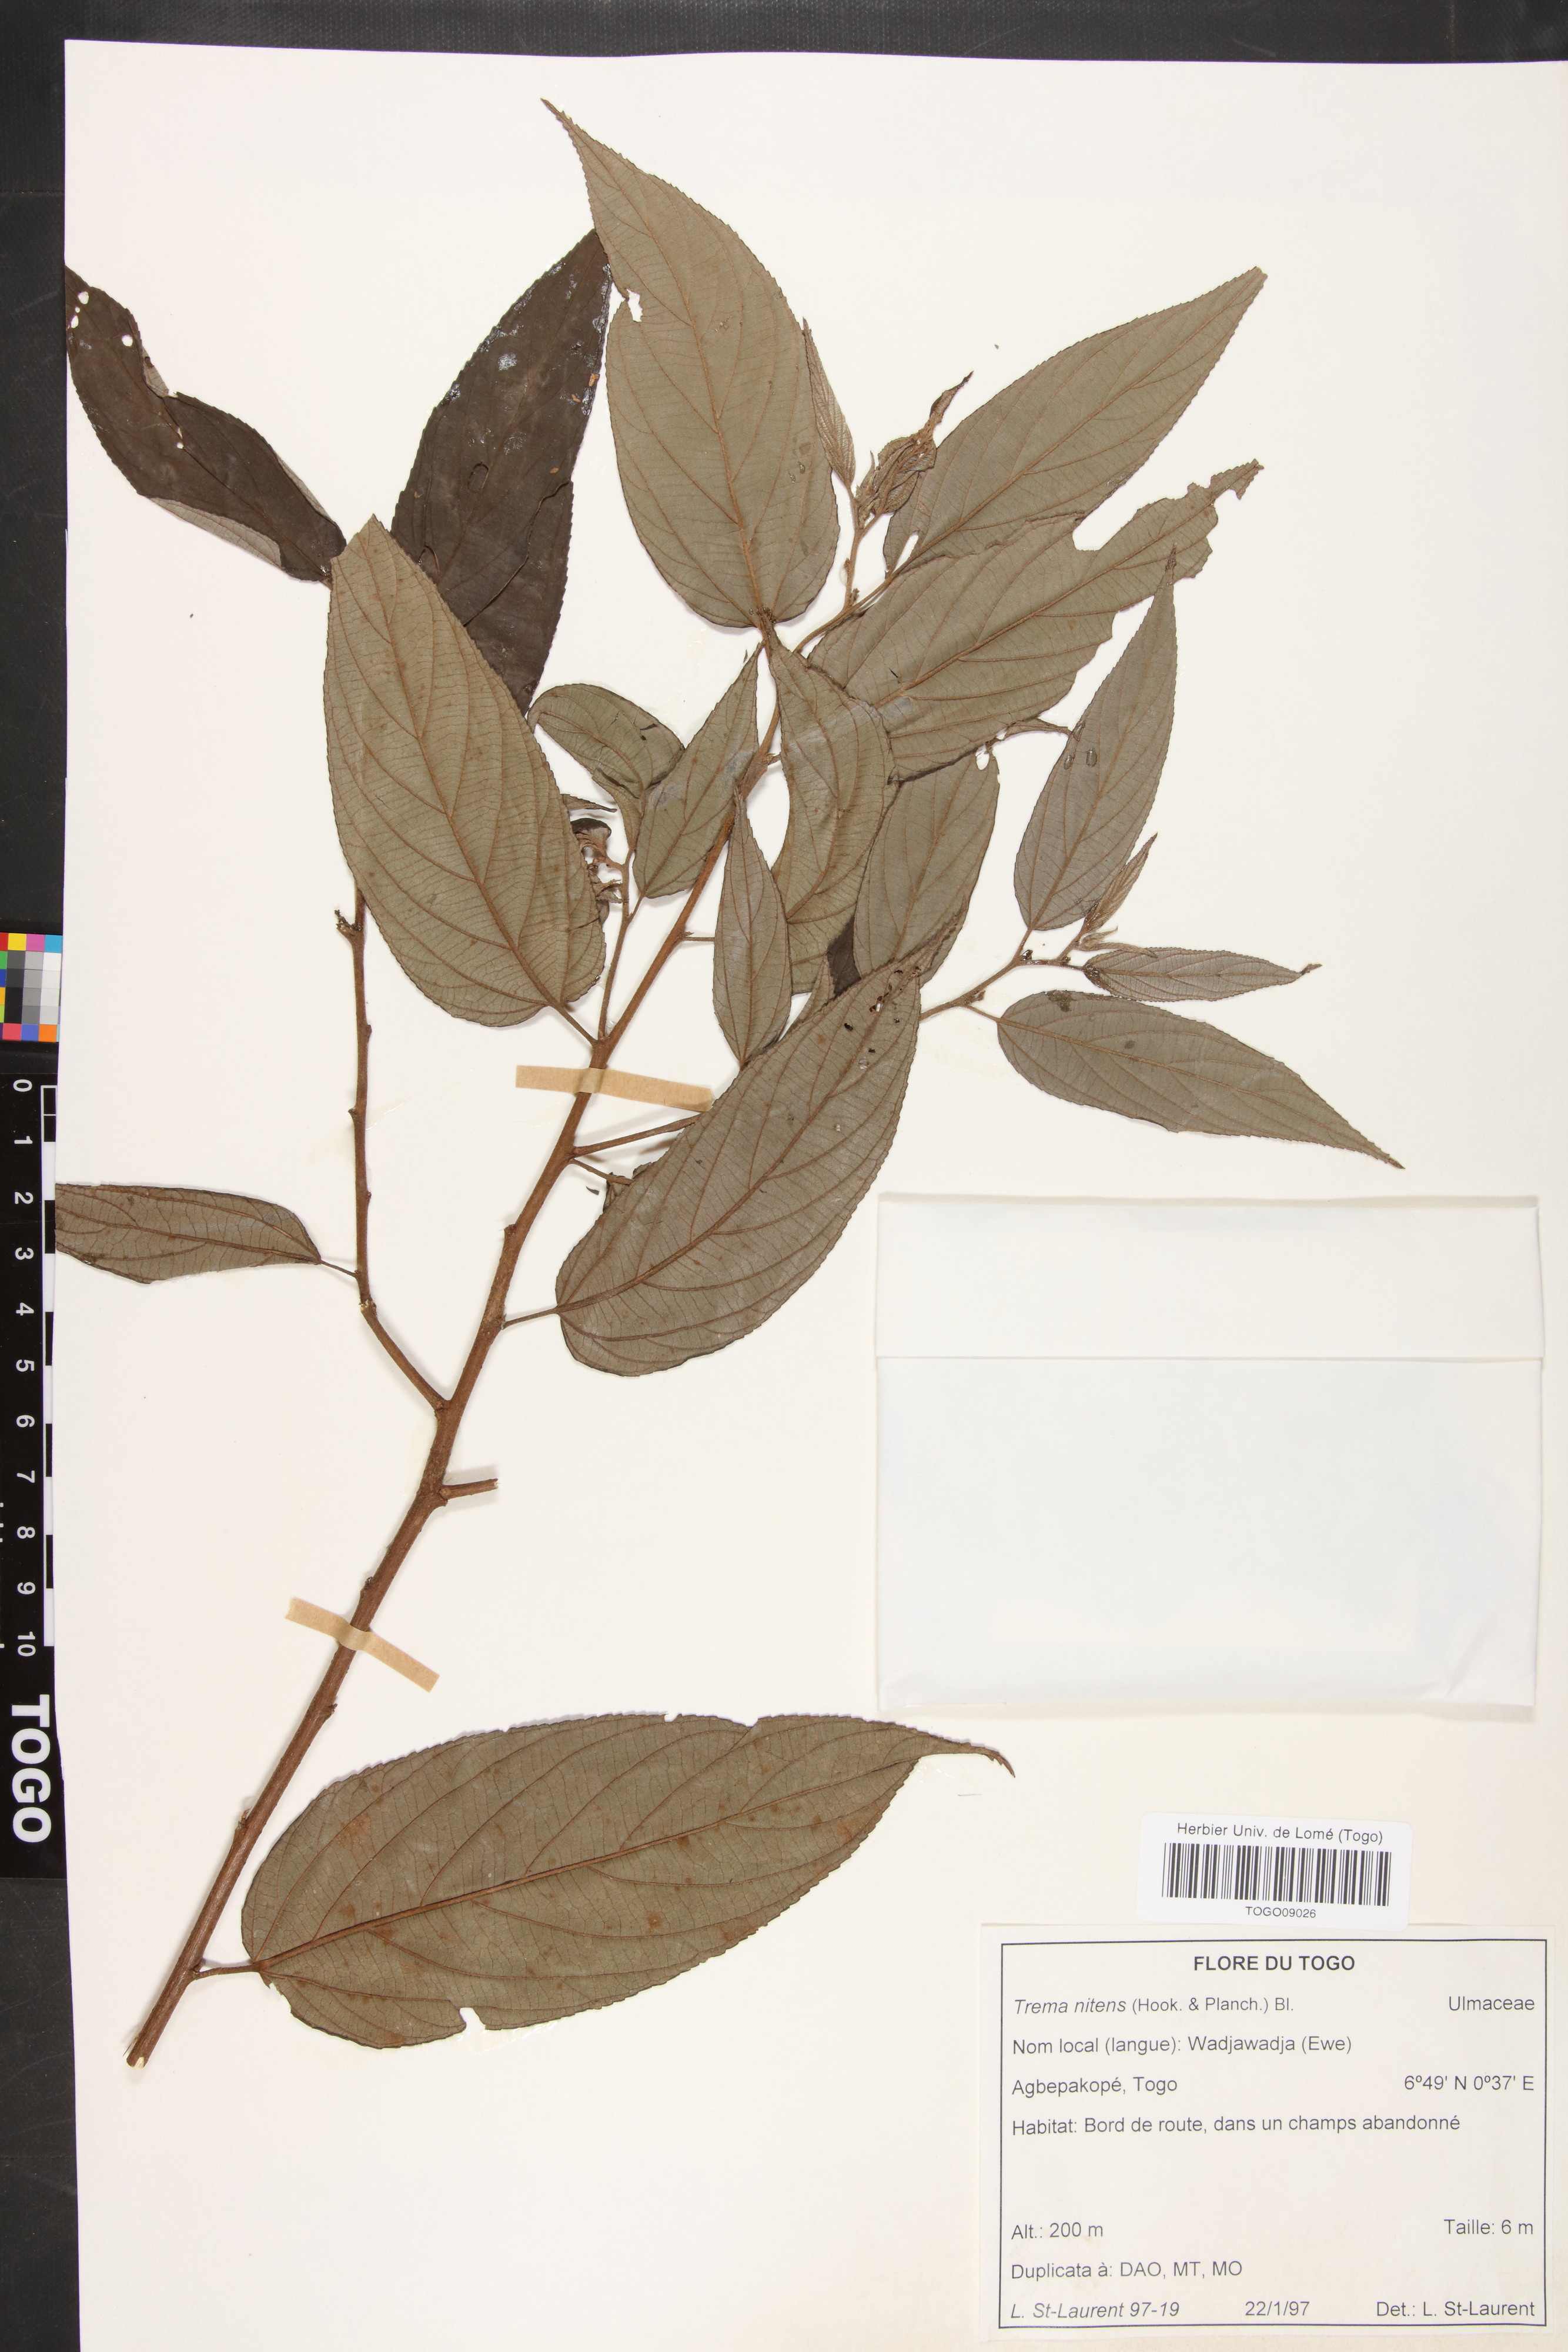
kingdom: Plantae
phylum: Tracheophyta
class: Magnoliopsida
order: Rosales
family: Cannabaceae
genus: Trema
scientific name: Trema orientale
